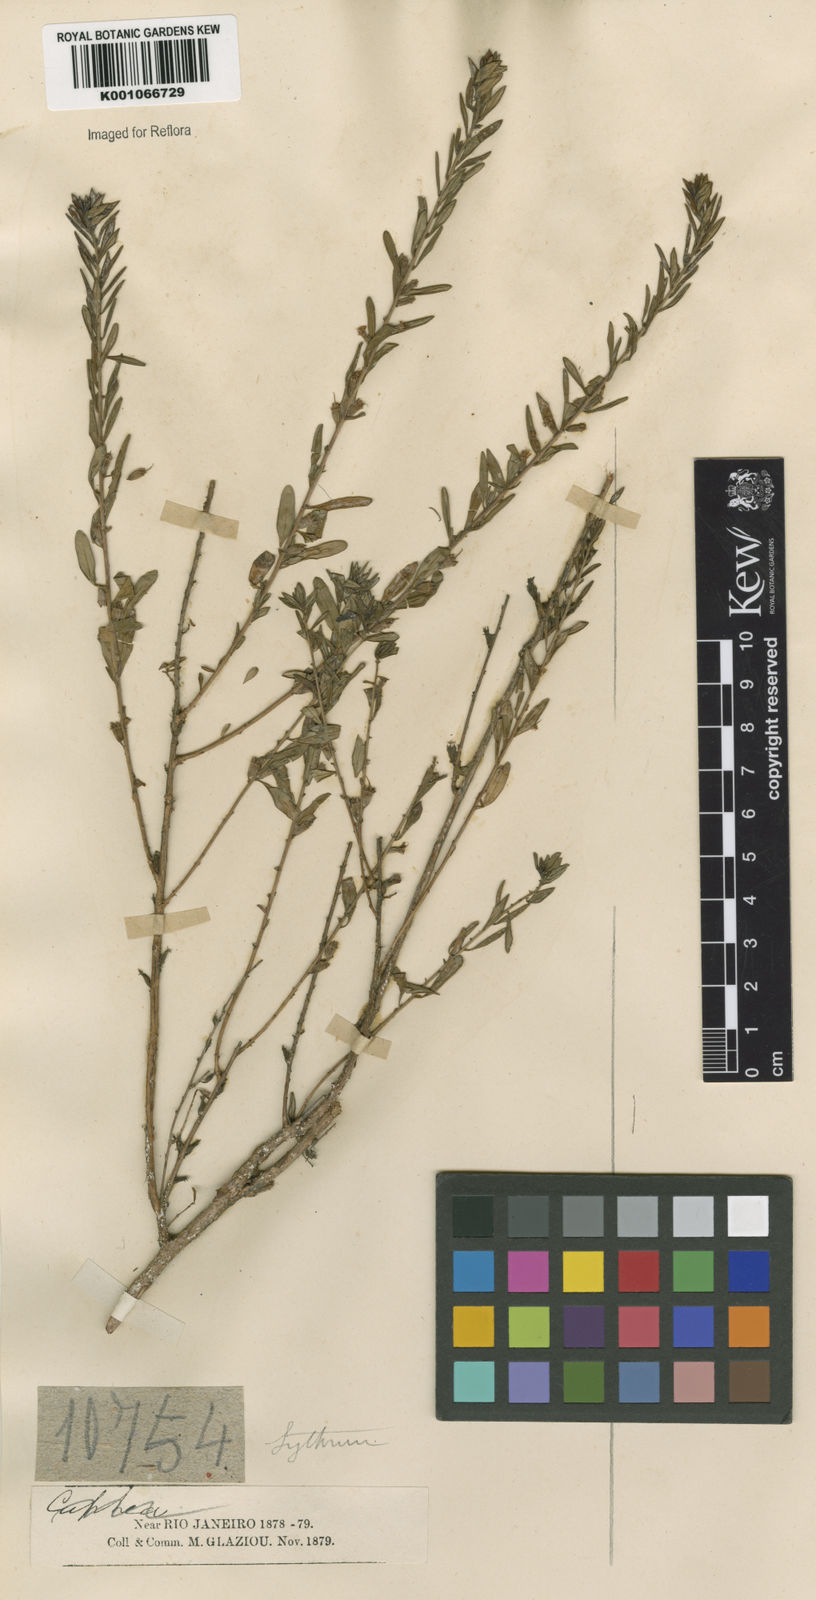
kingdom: Plantae
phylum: Tracheophyta
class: Magnoliopsida
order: Myrtales
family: Lythraceae
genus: Pleurophora
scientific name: Pleurophora anomala
